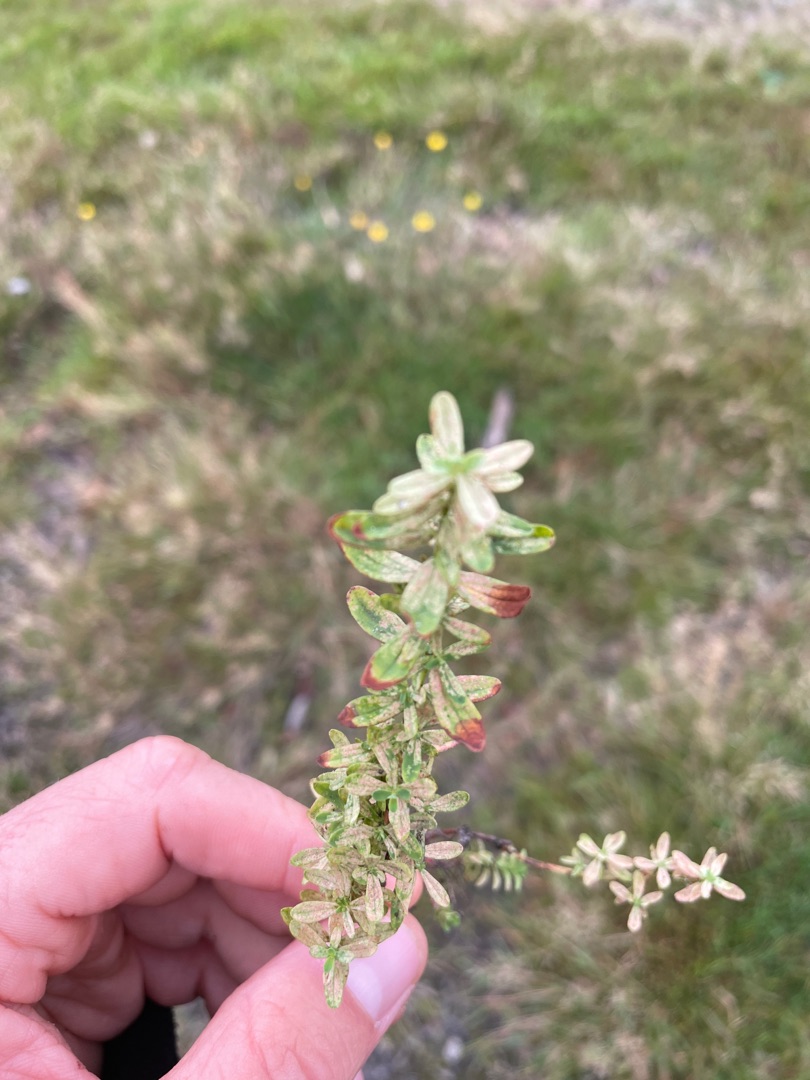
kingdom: Plantae
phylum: Tracheophyta
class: Magnoliopsida
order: Malpighiales
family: Hypericaceae
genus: Hypericum
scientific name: Hypericum perforatum
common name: Prikbladet perikon
